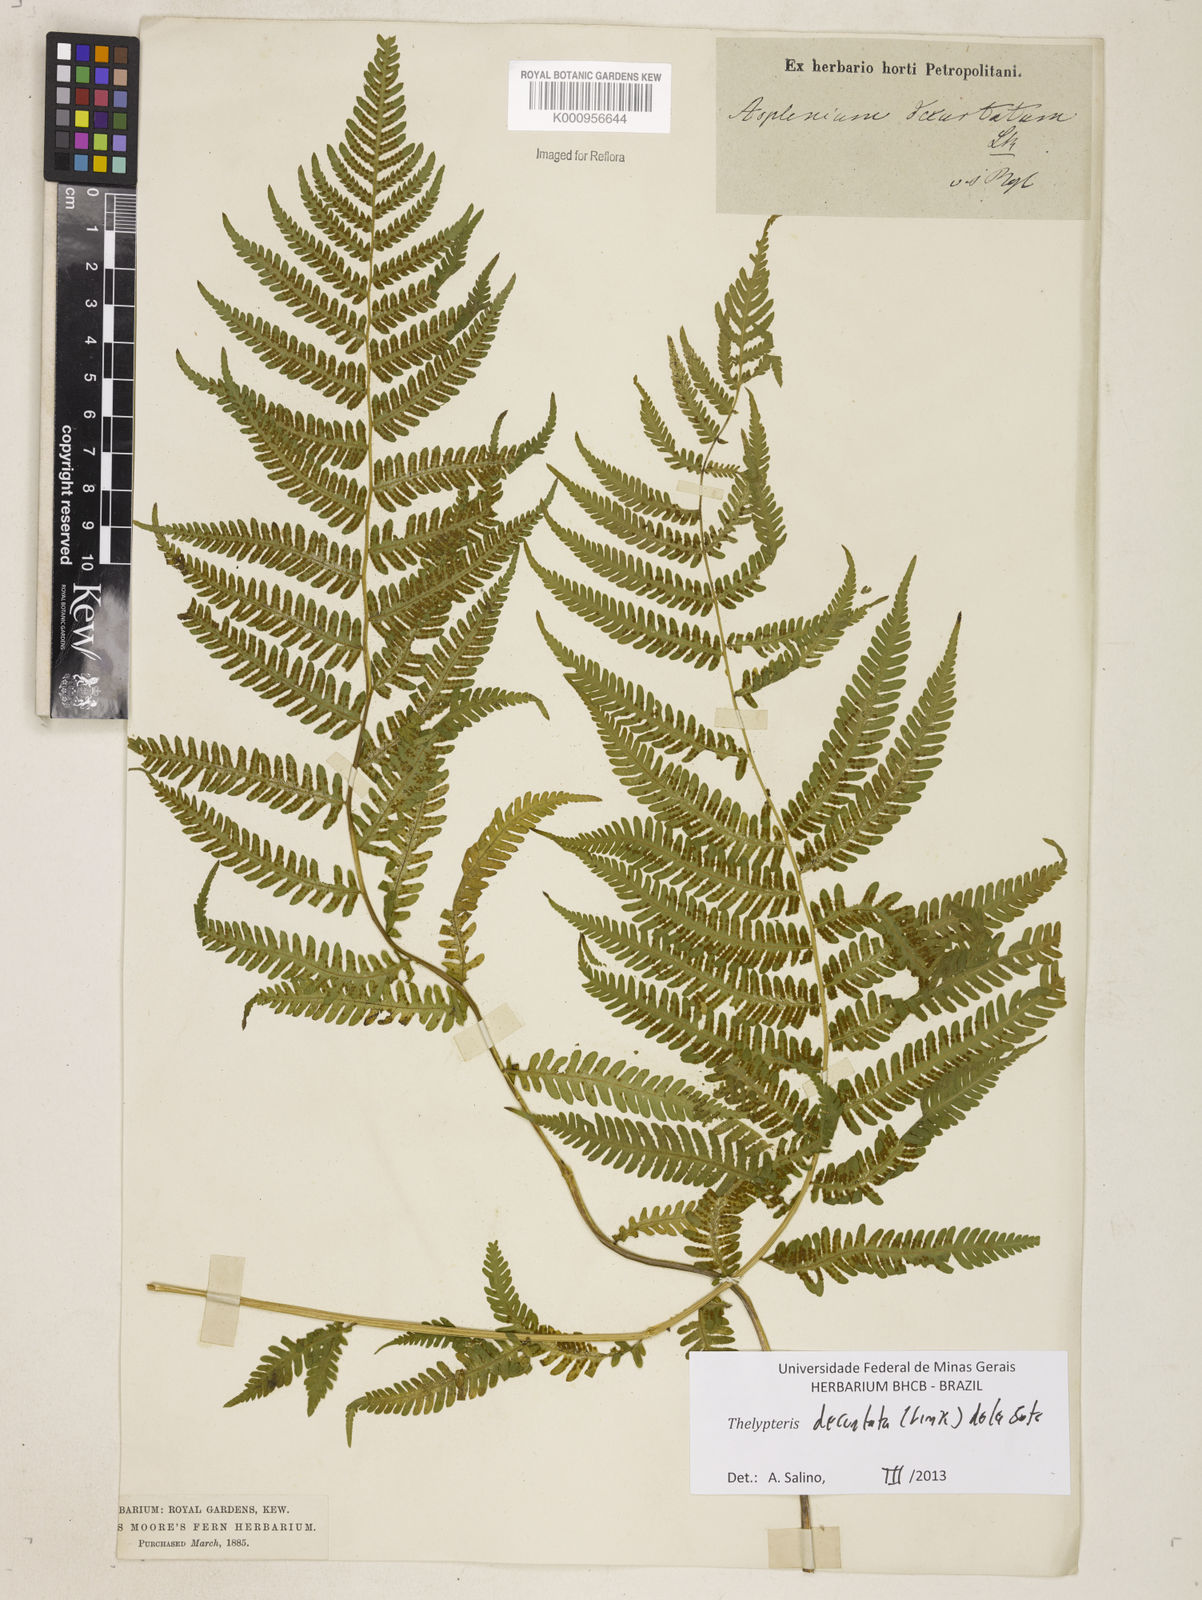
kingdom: Plantae
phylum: Tracheophyta
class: Polypodiopsida
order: Polypodiales
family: Thelypteridaceae
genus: Amauropelta
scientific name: Amauropelta decurtata
